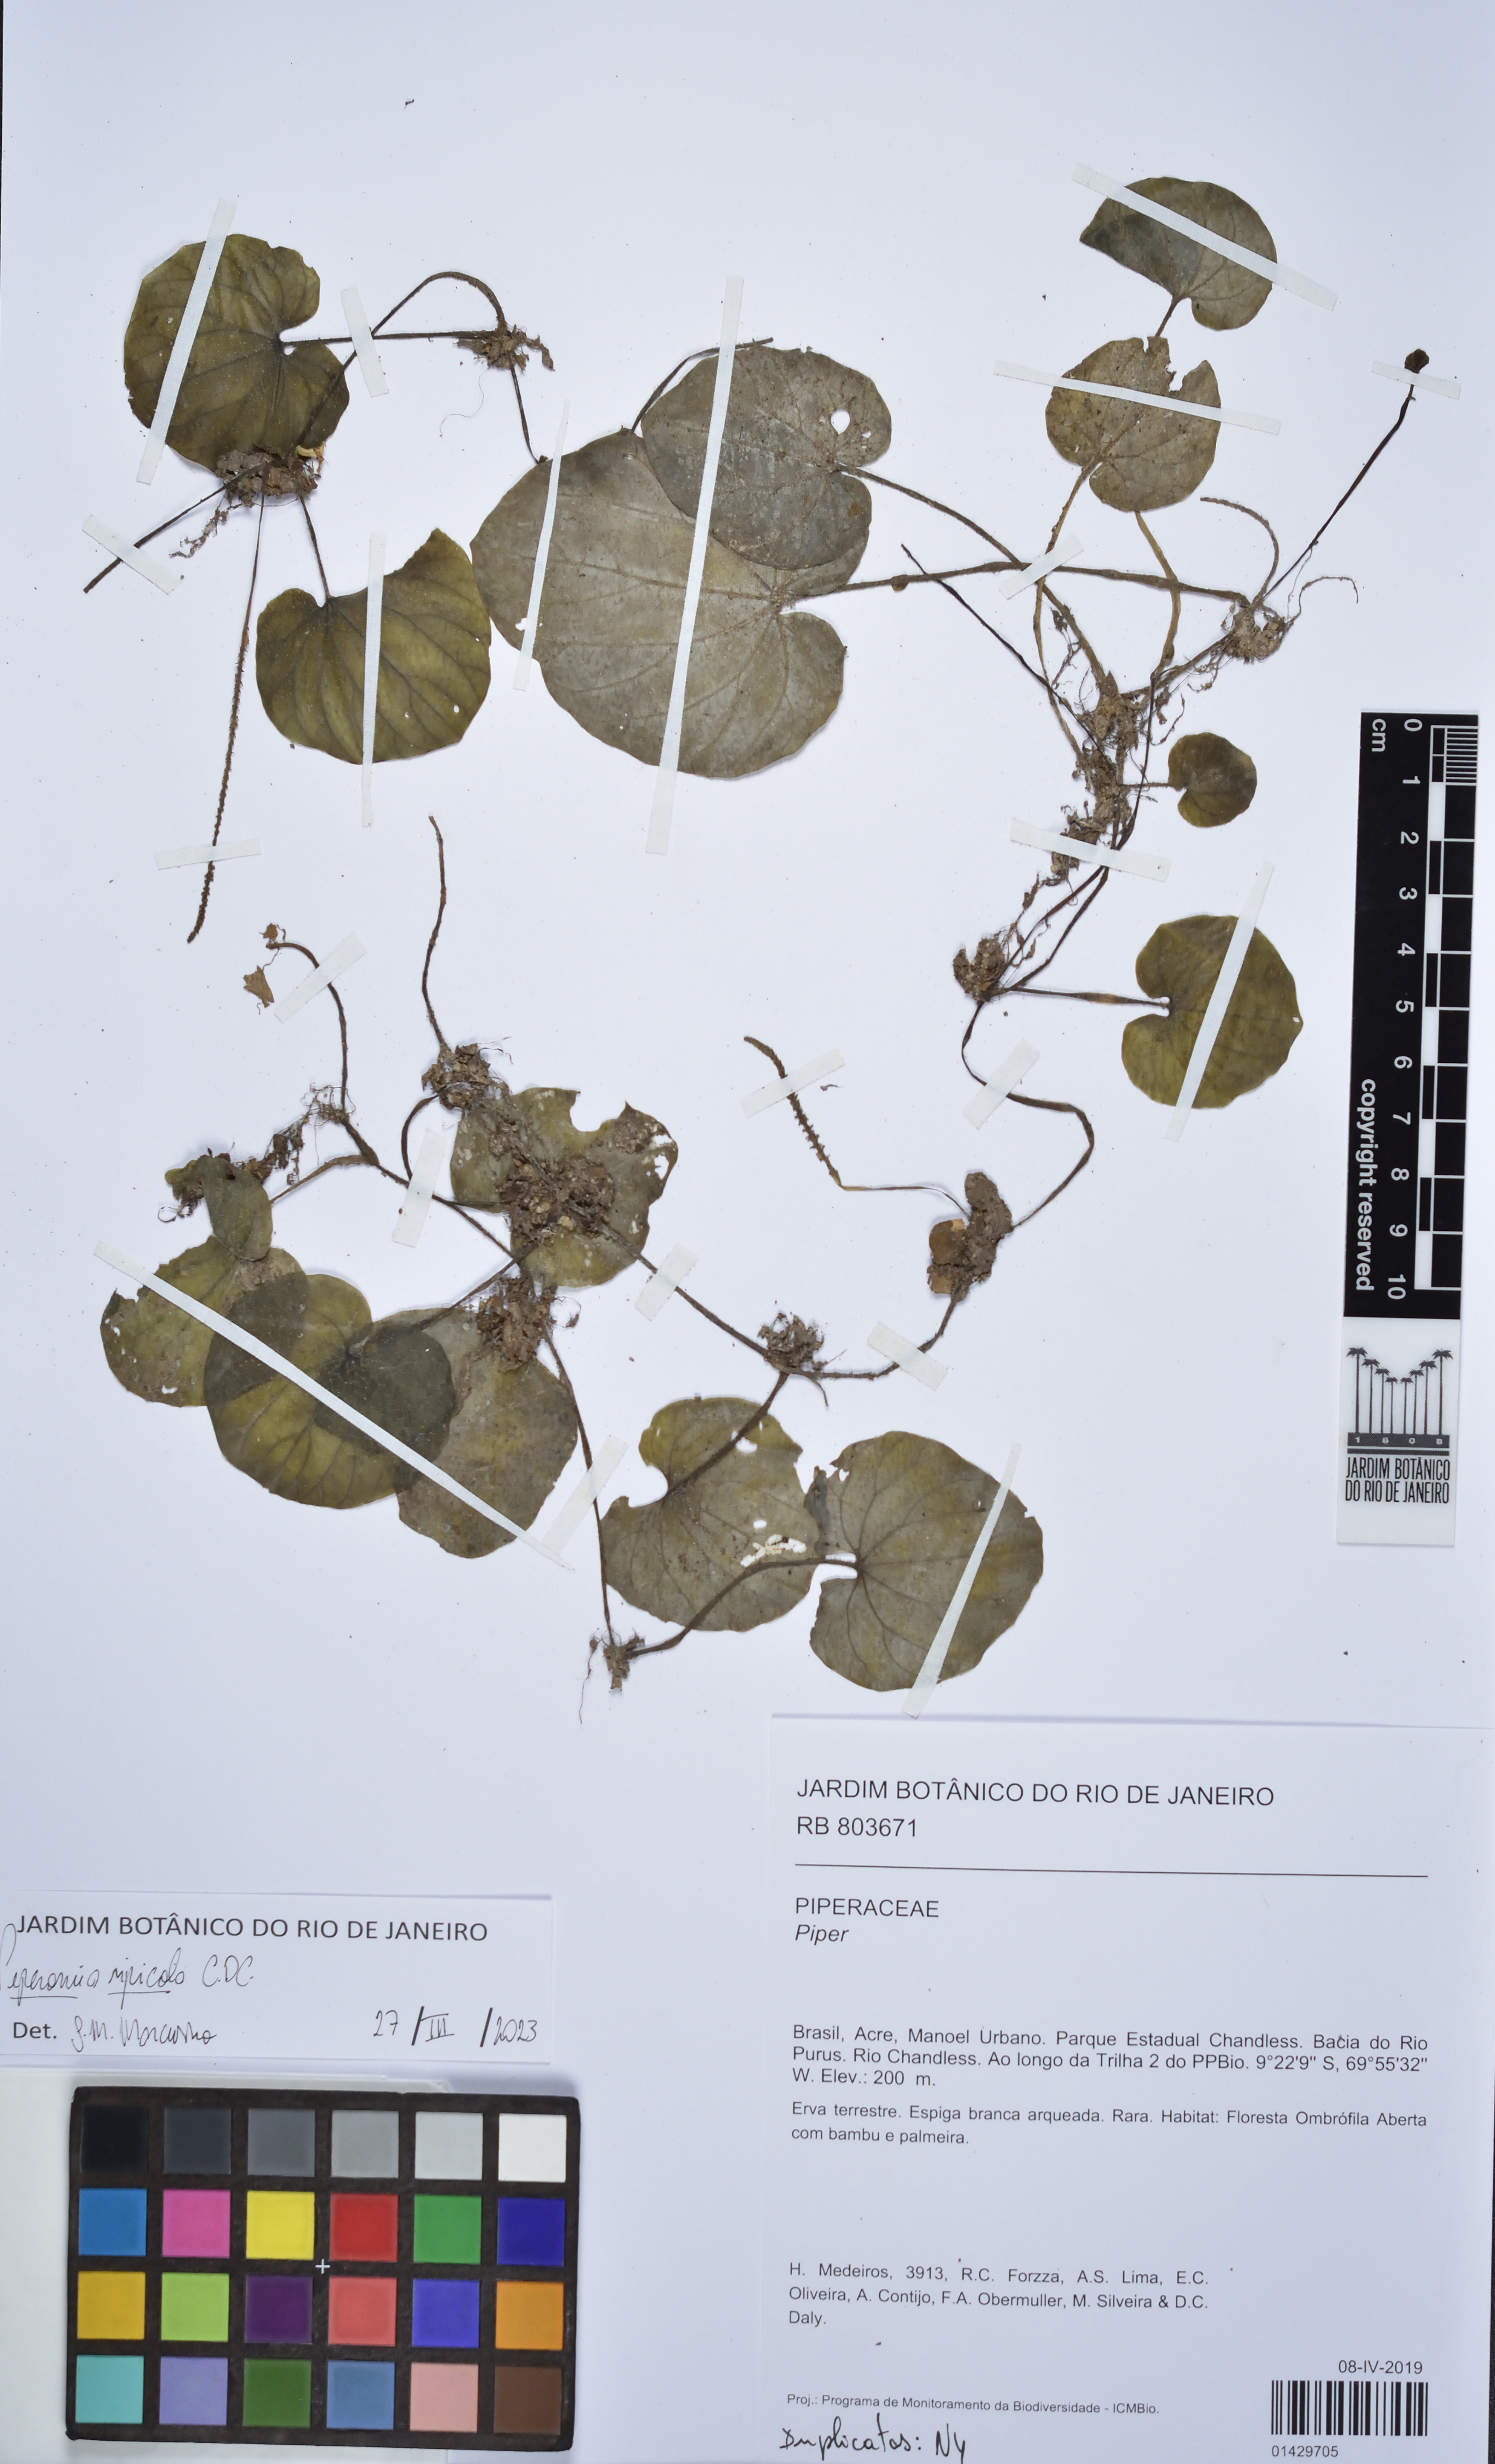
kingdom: Plantae
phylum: Tracheophyta
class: Magnoliopsida
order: Piperales
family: Piperaceae
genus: Peperomia
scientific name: Peperomia ripicola
